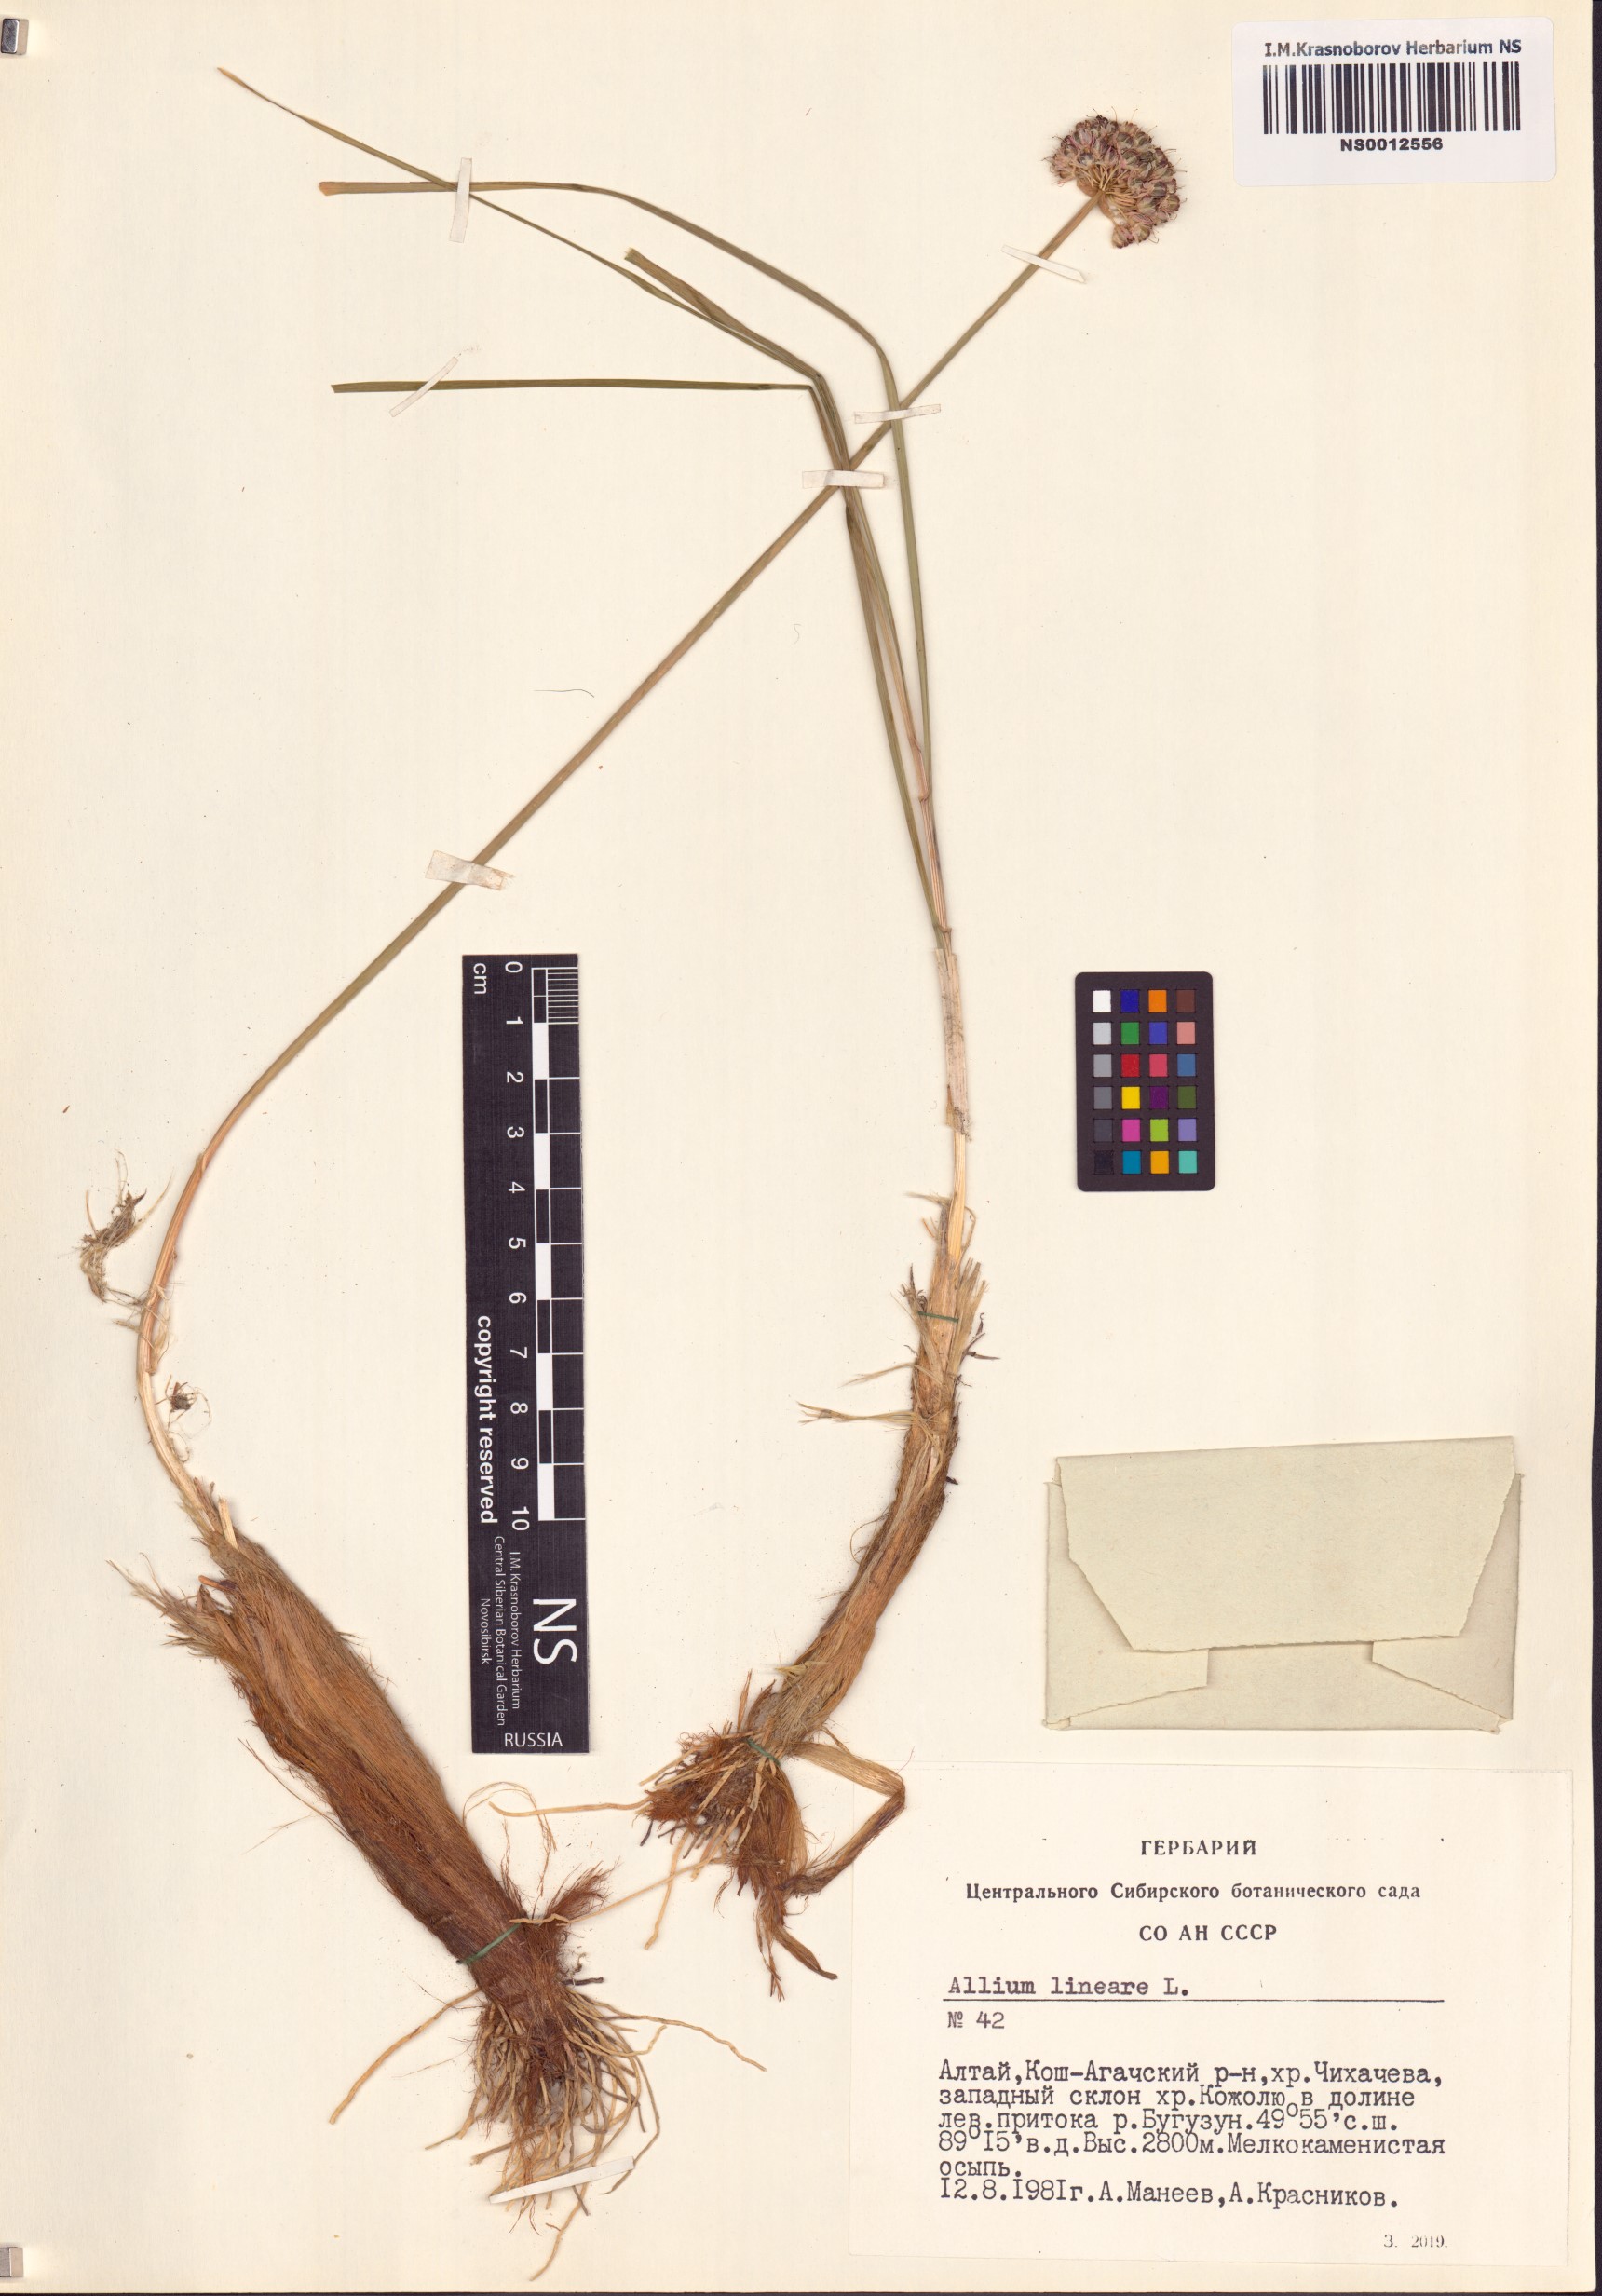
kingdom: Plantae
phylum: Tracheophyta
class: Liliopsida
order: Asparagales
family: Amaryllidaceae
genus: Allium
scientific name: Allium lineare
